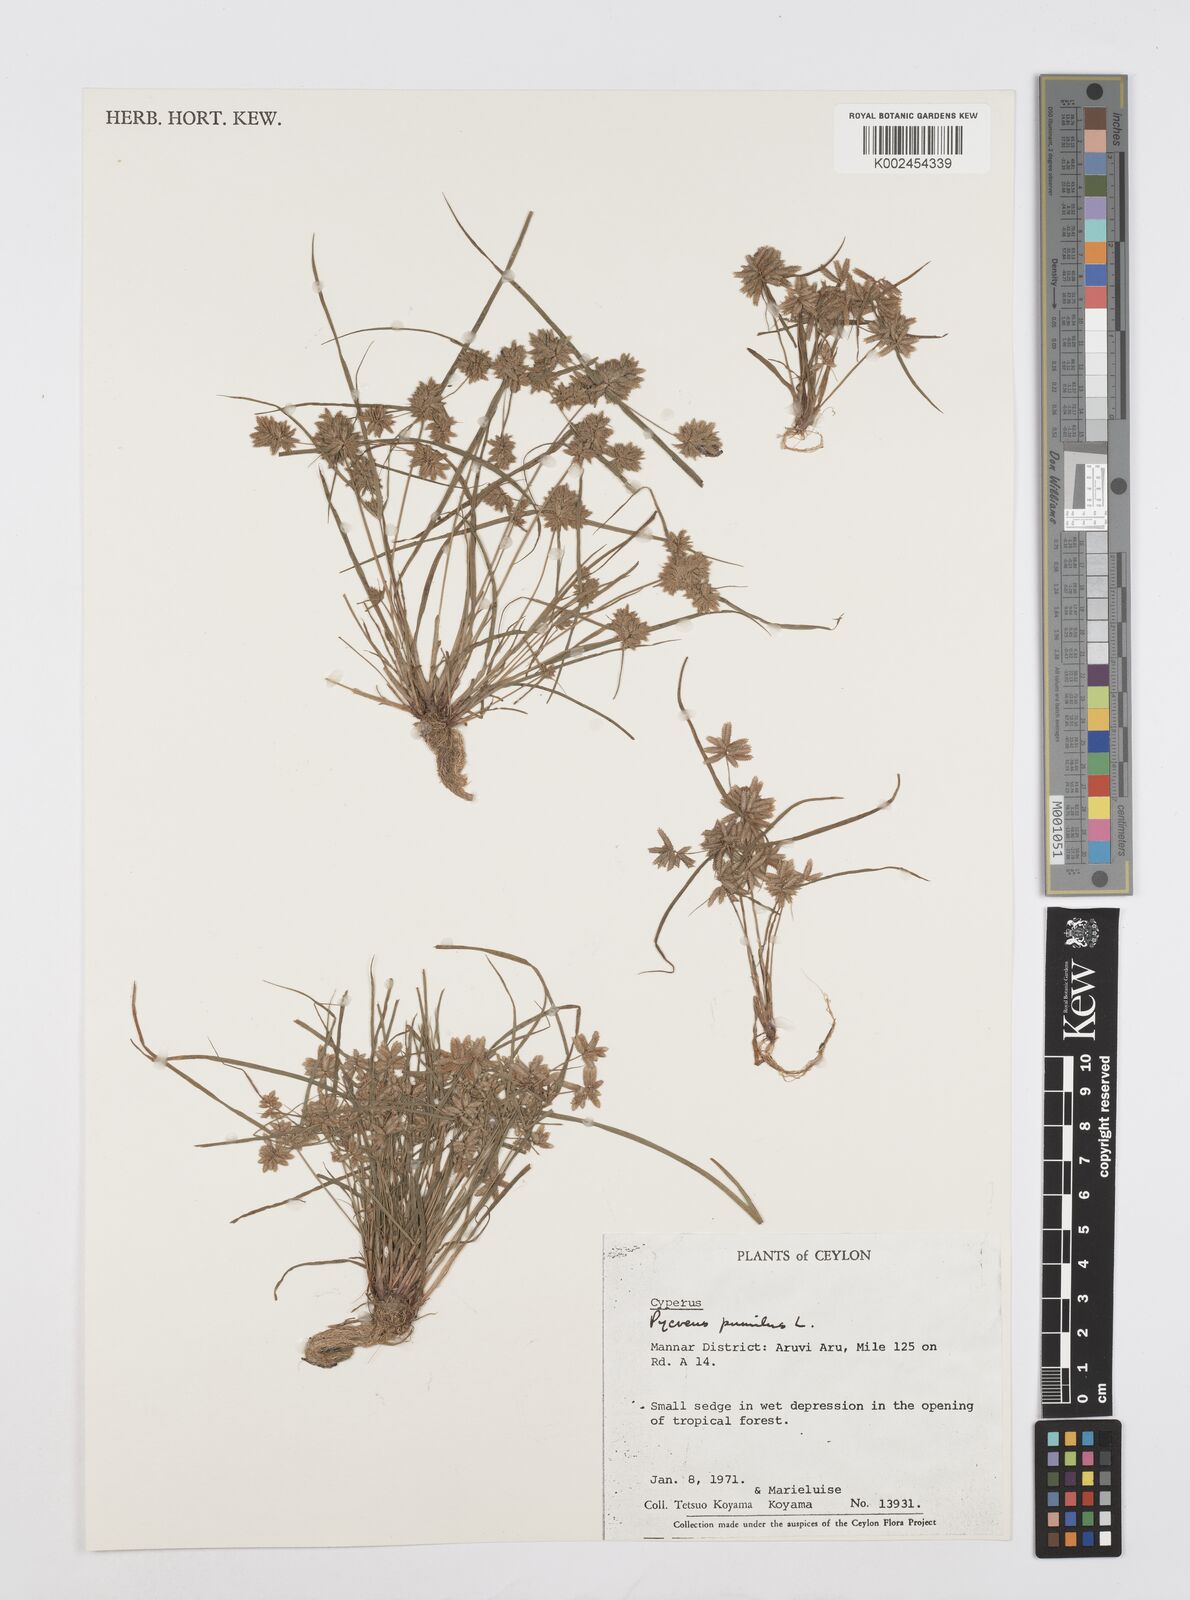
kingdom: Plantae
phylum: Tracheophyta
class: Liliopsida
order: Poales
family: Cyperaceae
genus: Cyperus
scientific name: Cyperus pumilus
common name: Low flatsedge
